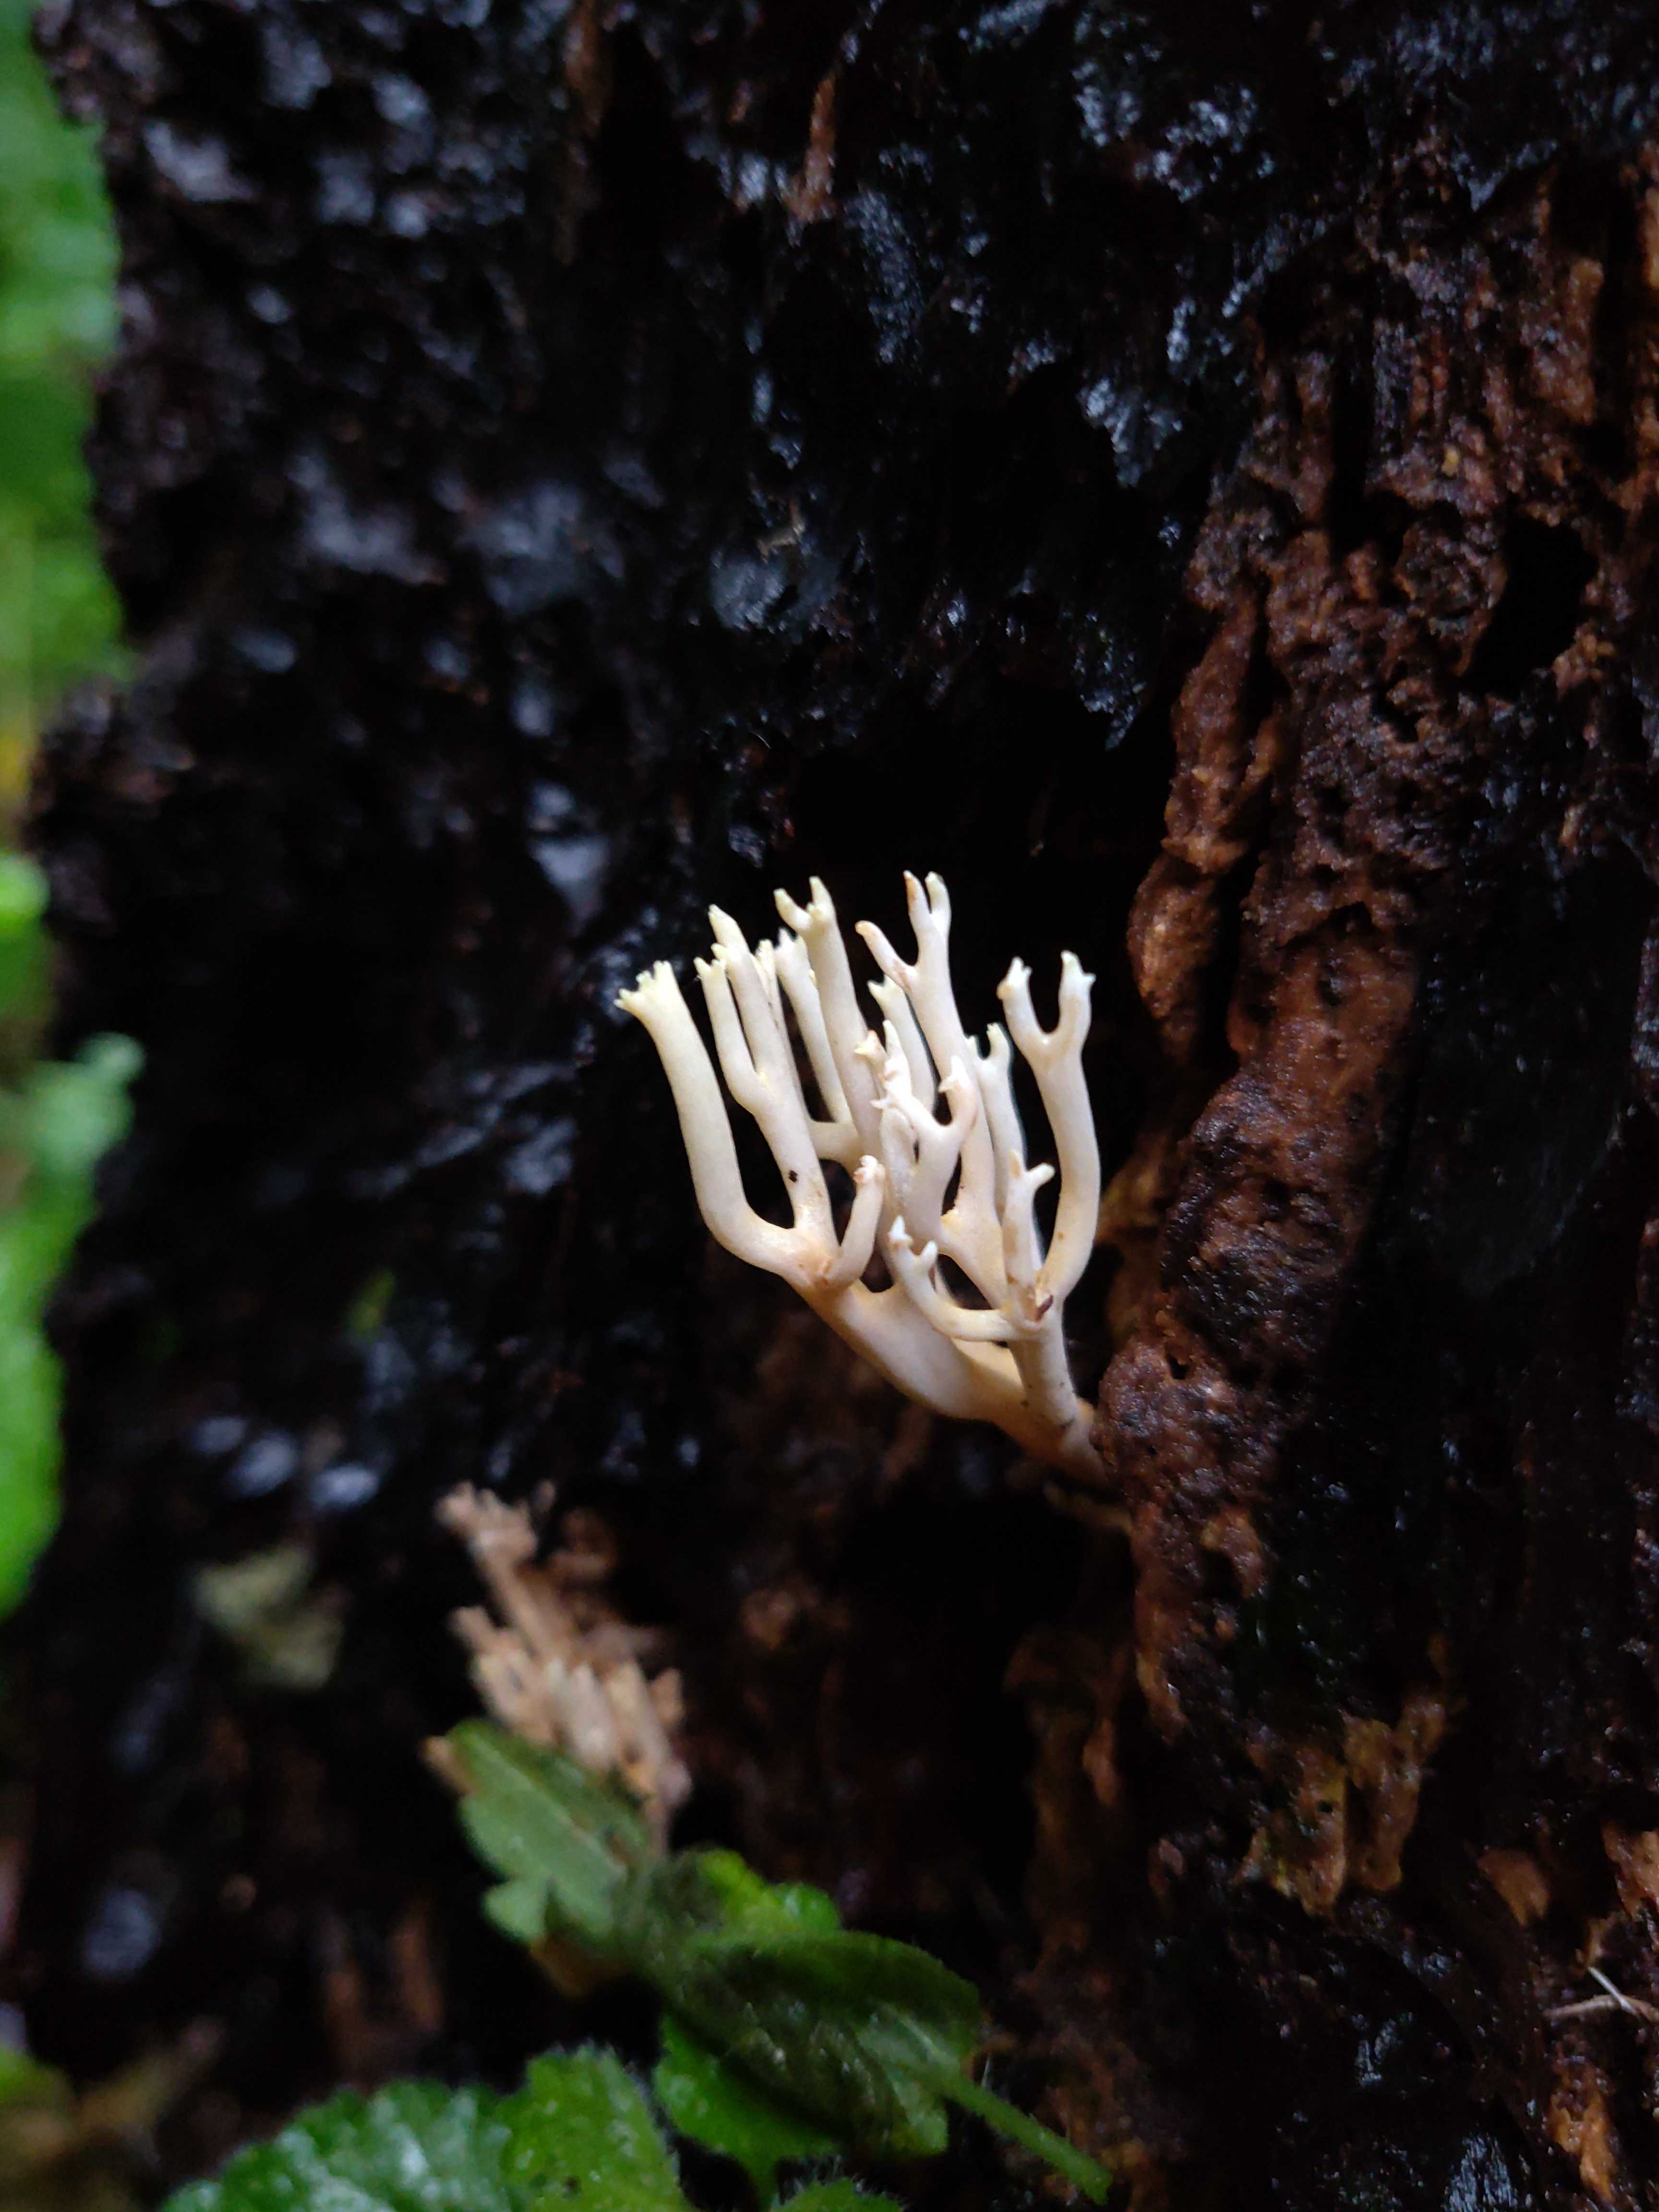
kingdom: Fungi
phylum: Basidiomycota
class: Agaricomycetes
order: Gomphales
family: Gomphaceae
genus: Ramaria
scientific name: Ramaria stricta
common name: rank koralsvamp
